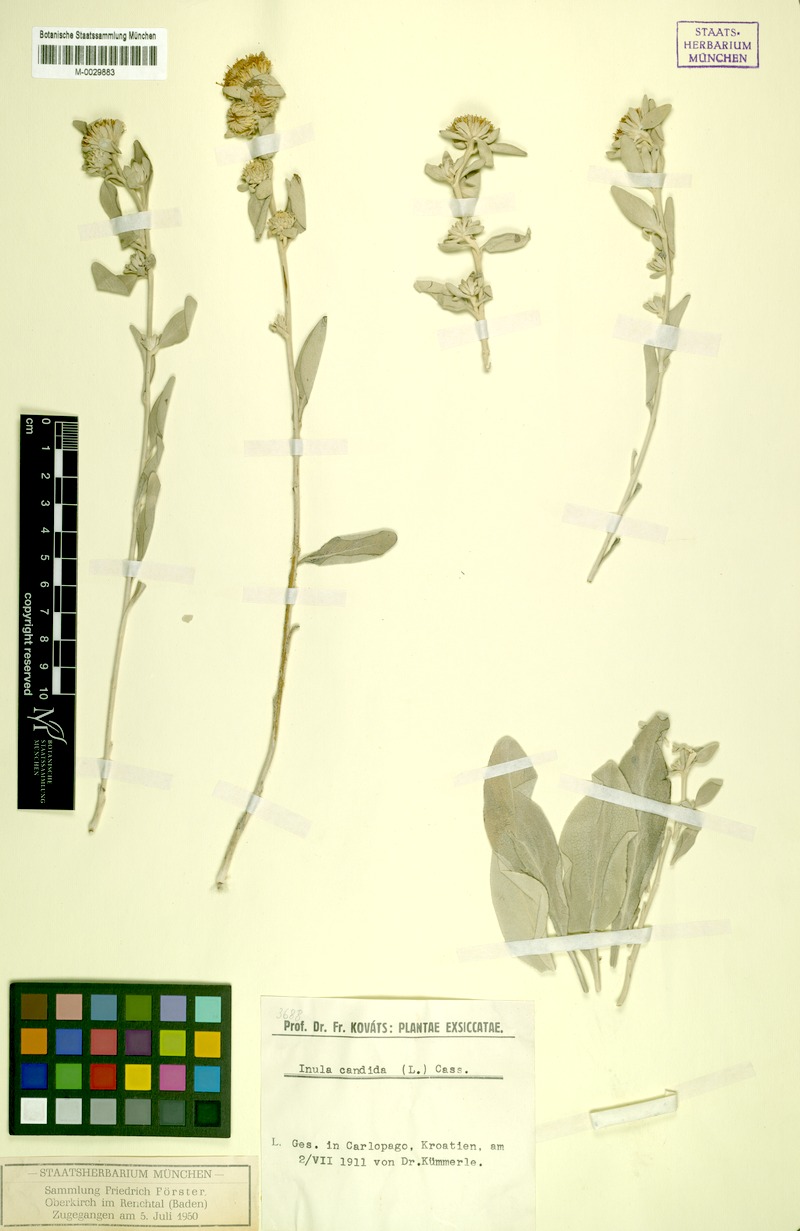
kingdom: Plantae
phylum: Tracheophyta
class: Magnoliopsida
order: Asterales
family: Asteraceae
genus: Pentanema
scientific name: Pentanema verbascifolium
